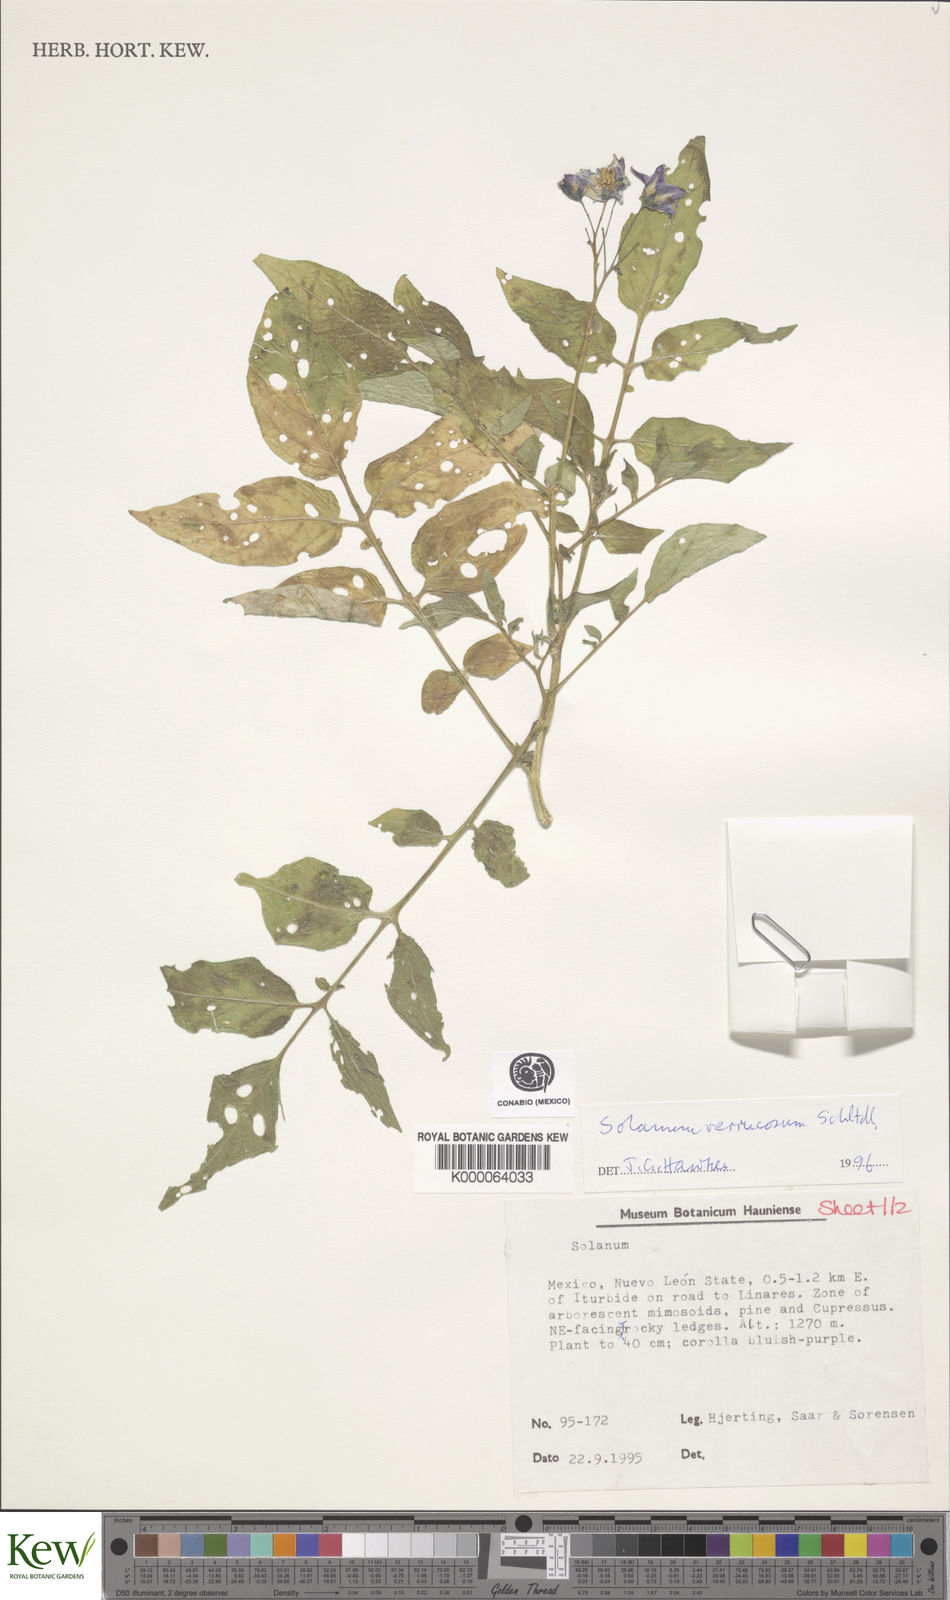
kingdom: Plantae
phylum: Tracheophyta
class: Magnoliopsida
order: Solanales
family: Solanaceae
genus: Solanum
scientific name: Solanum verrucosum
